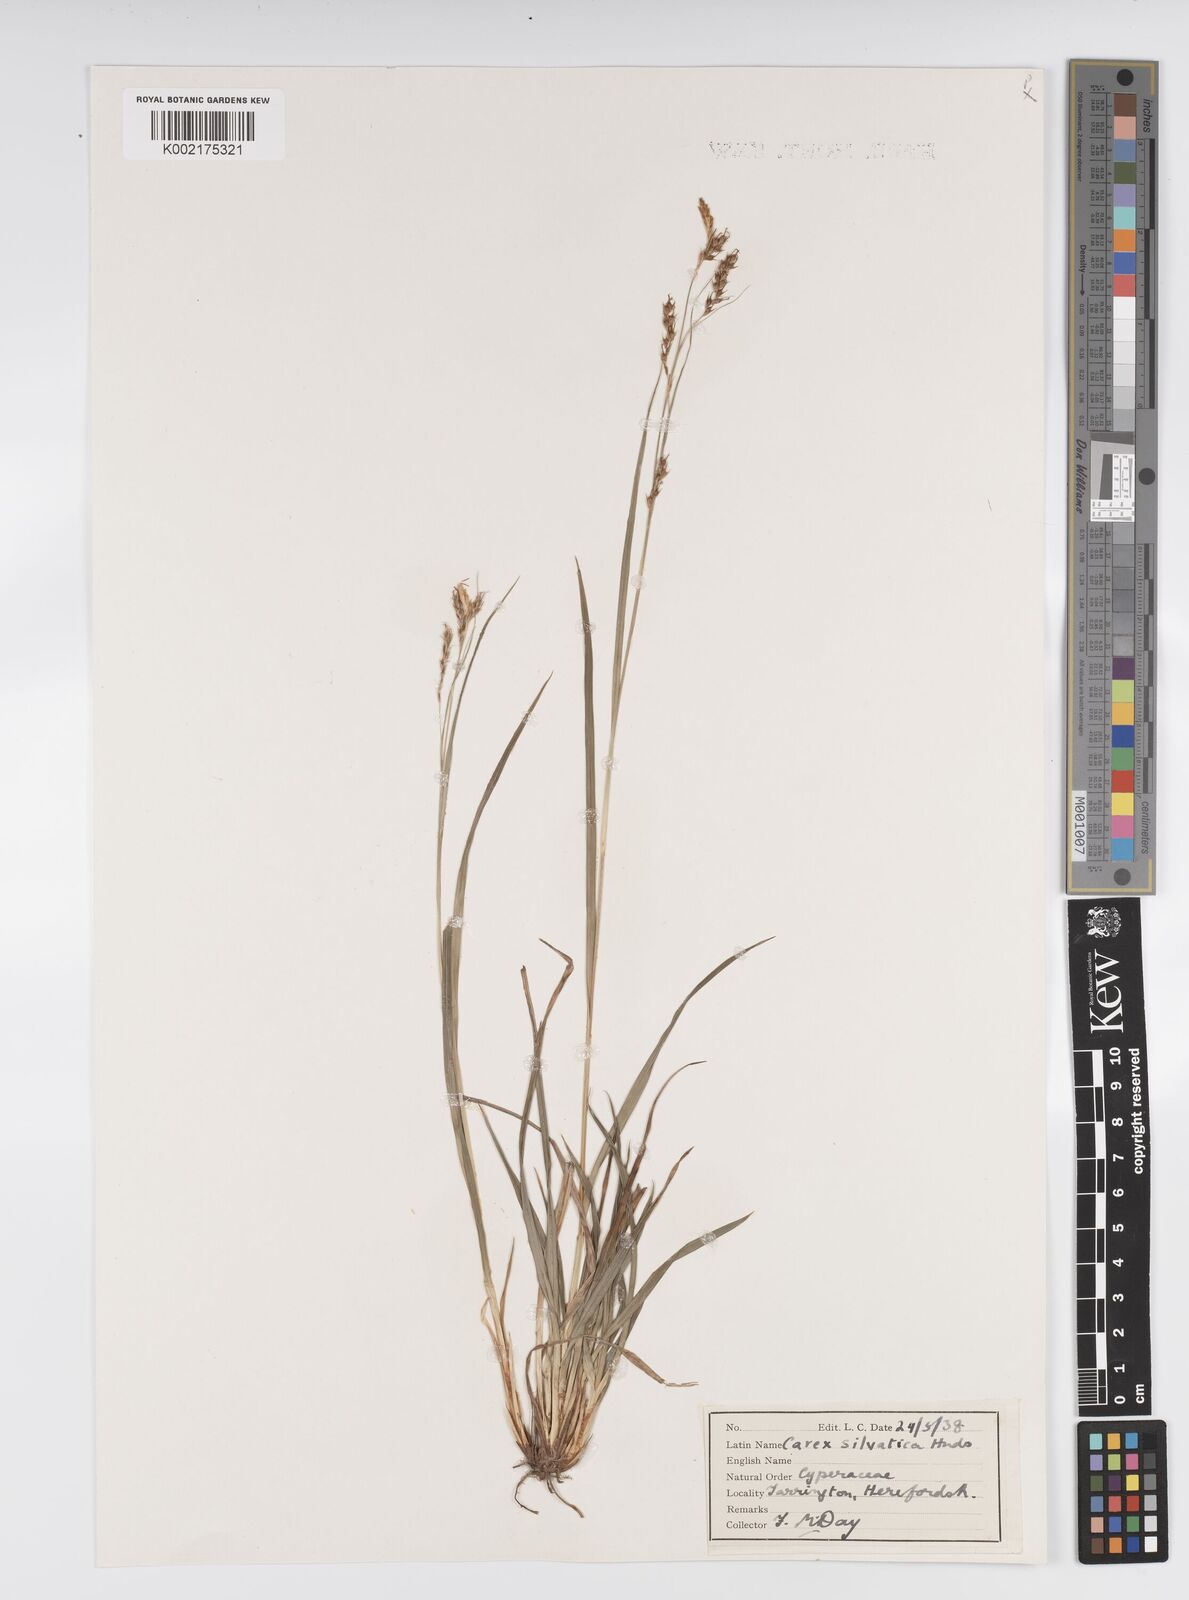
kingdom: Plantae
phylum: Tracheophyta
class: Liliopsida
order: Poales
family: Cyperaceae
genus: Carex
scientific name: Carex sylvatica
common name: Wood-sedge
